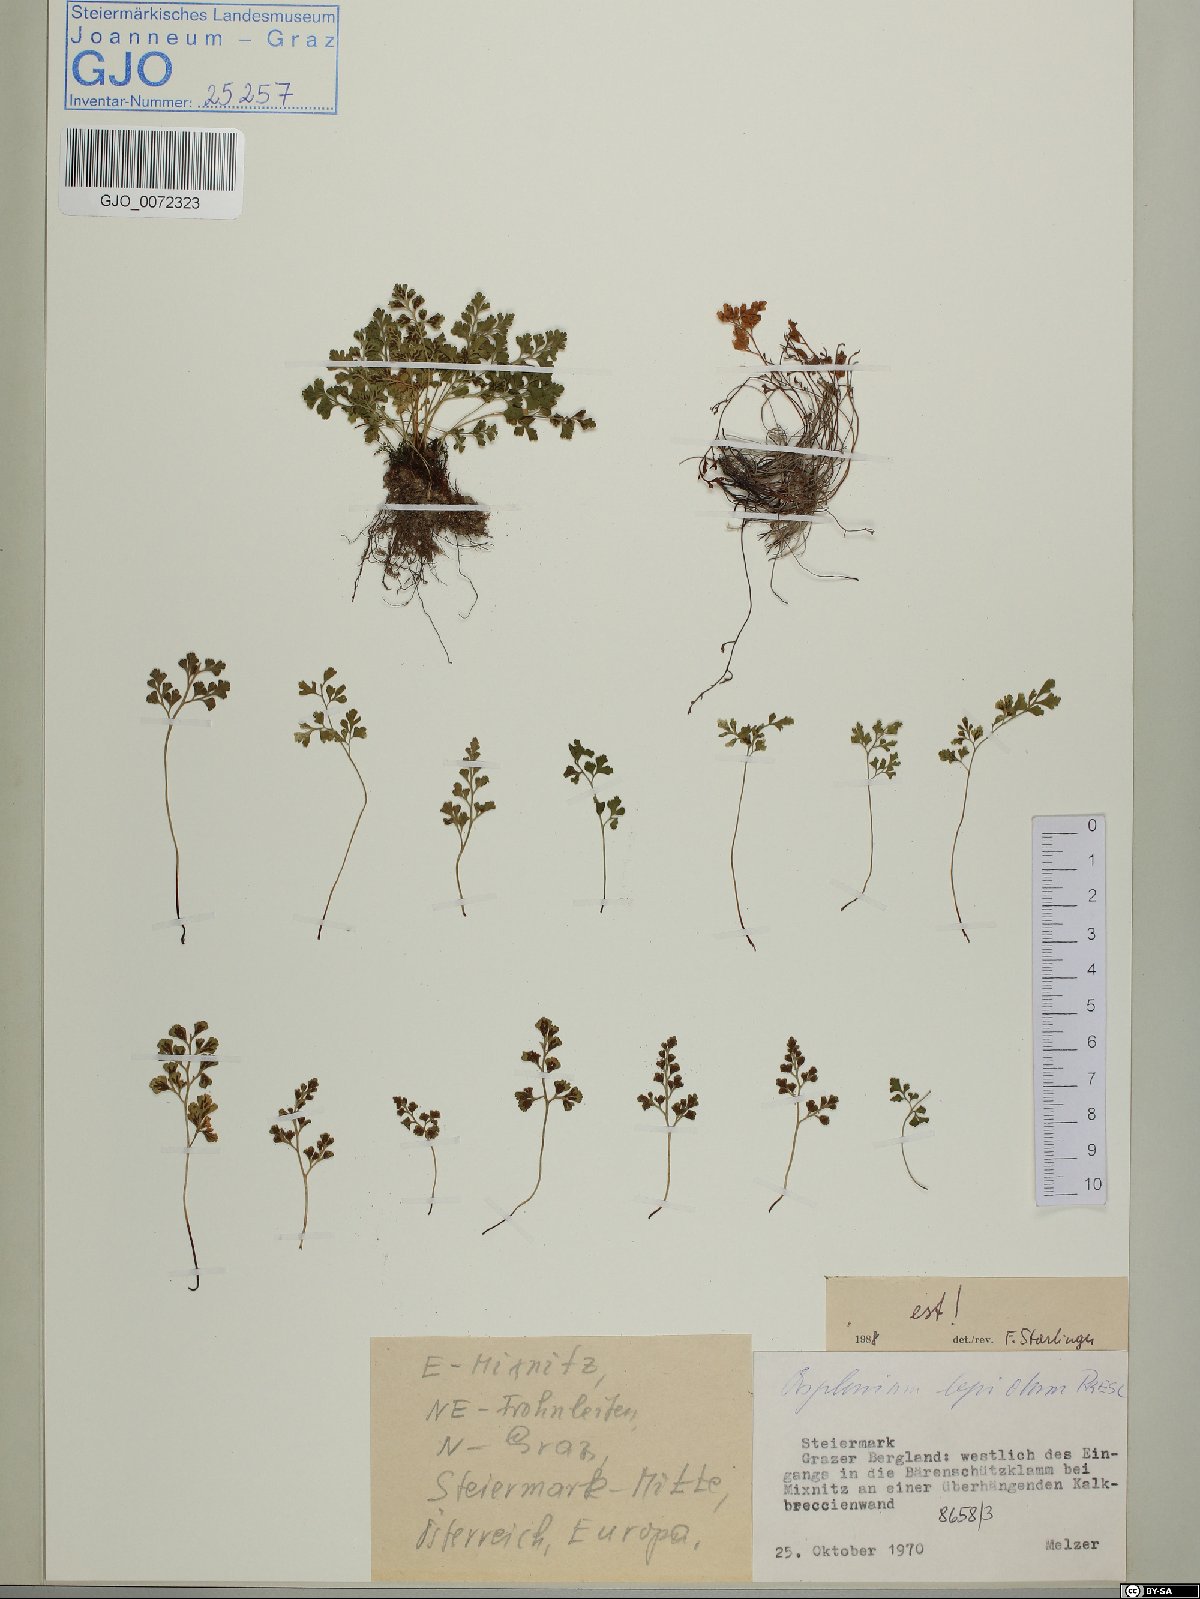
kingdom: Plantae
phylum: Tracheophyta
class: Polypodiopsida
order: Polypodiales
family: Aspleniaceae
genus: Asplenium
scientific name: Asplenium lepidum
